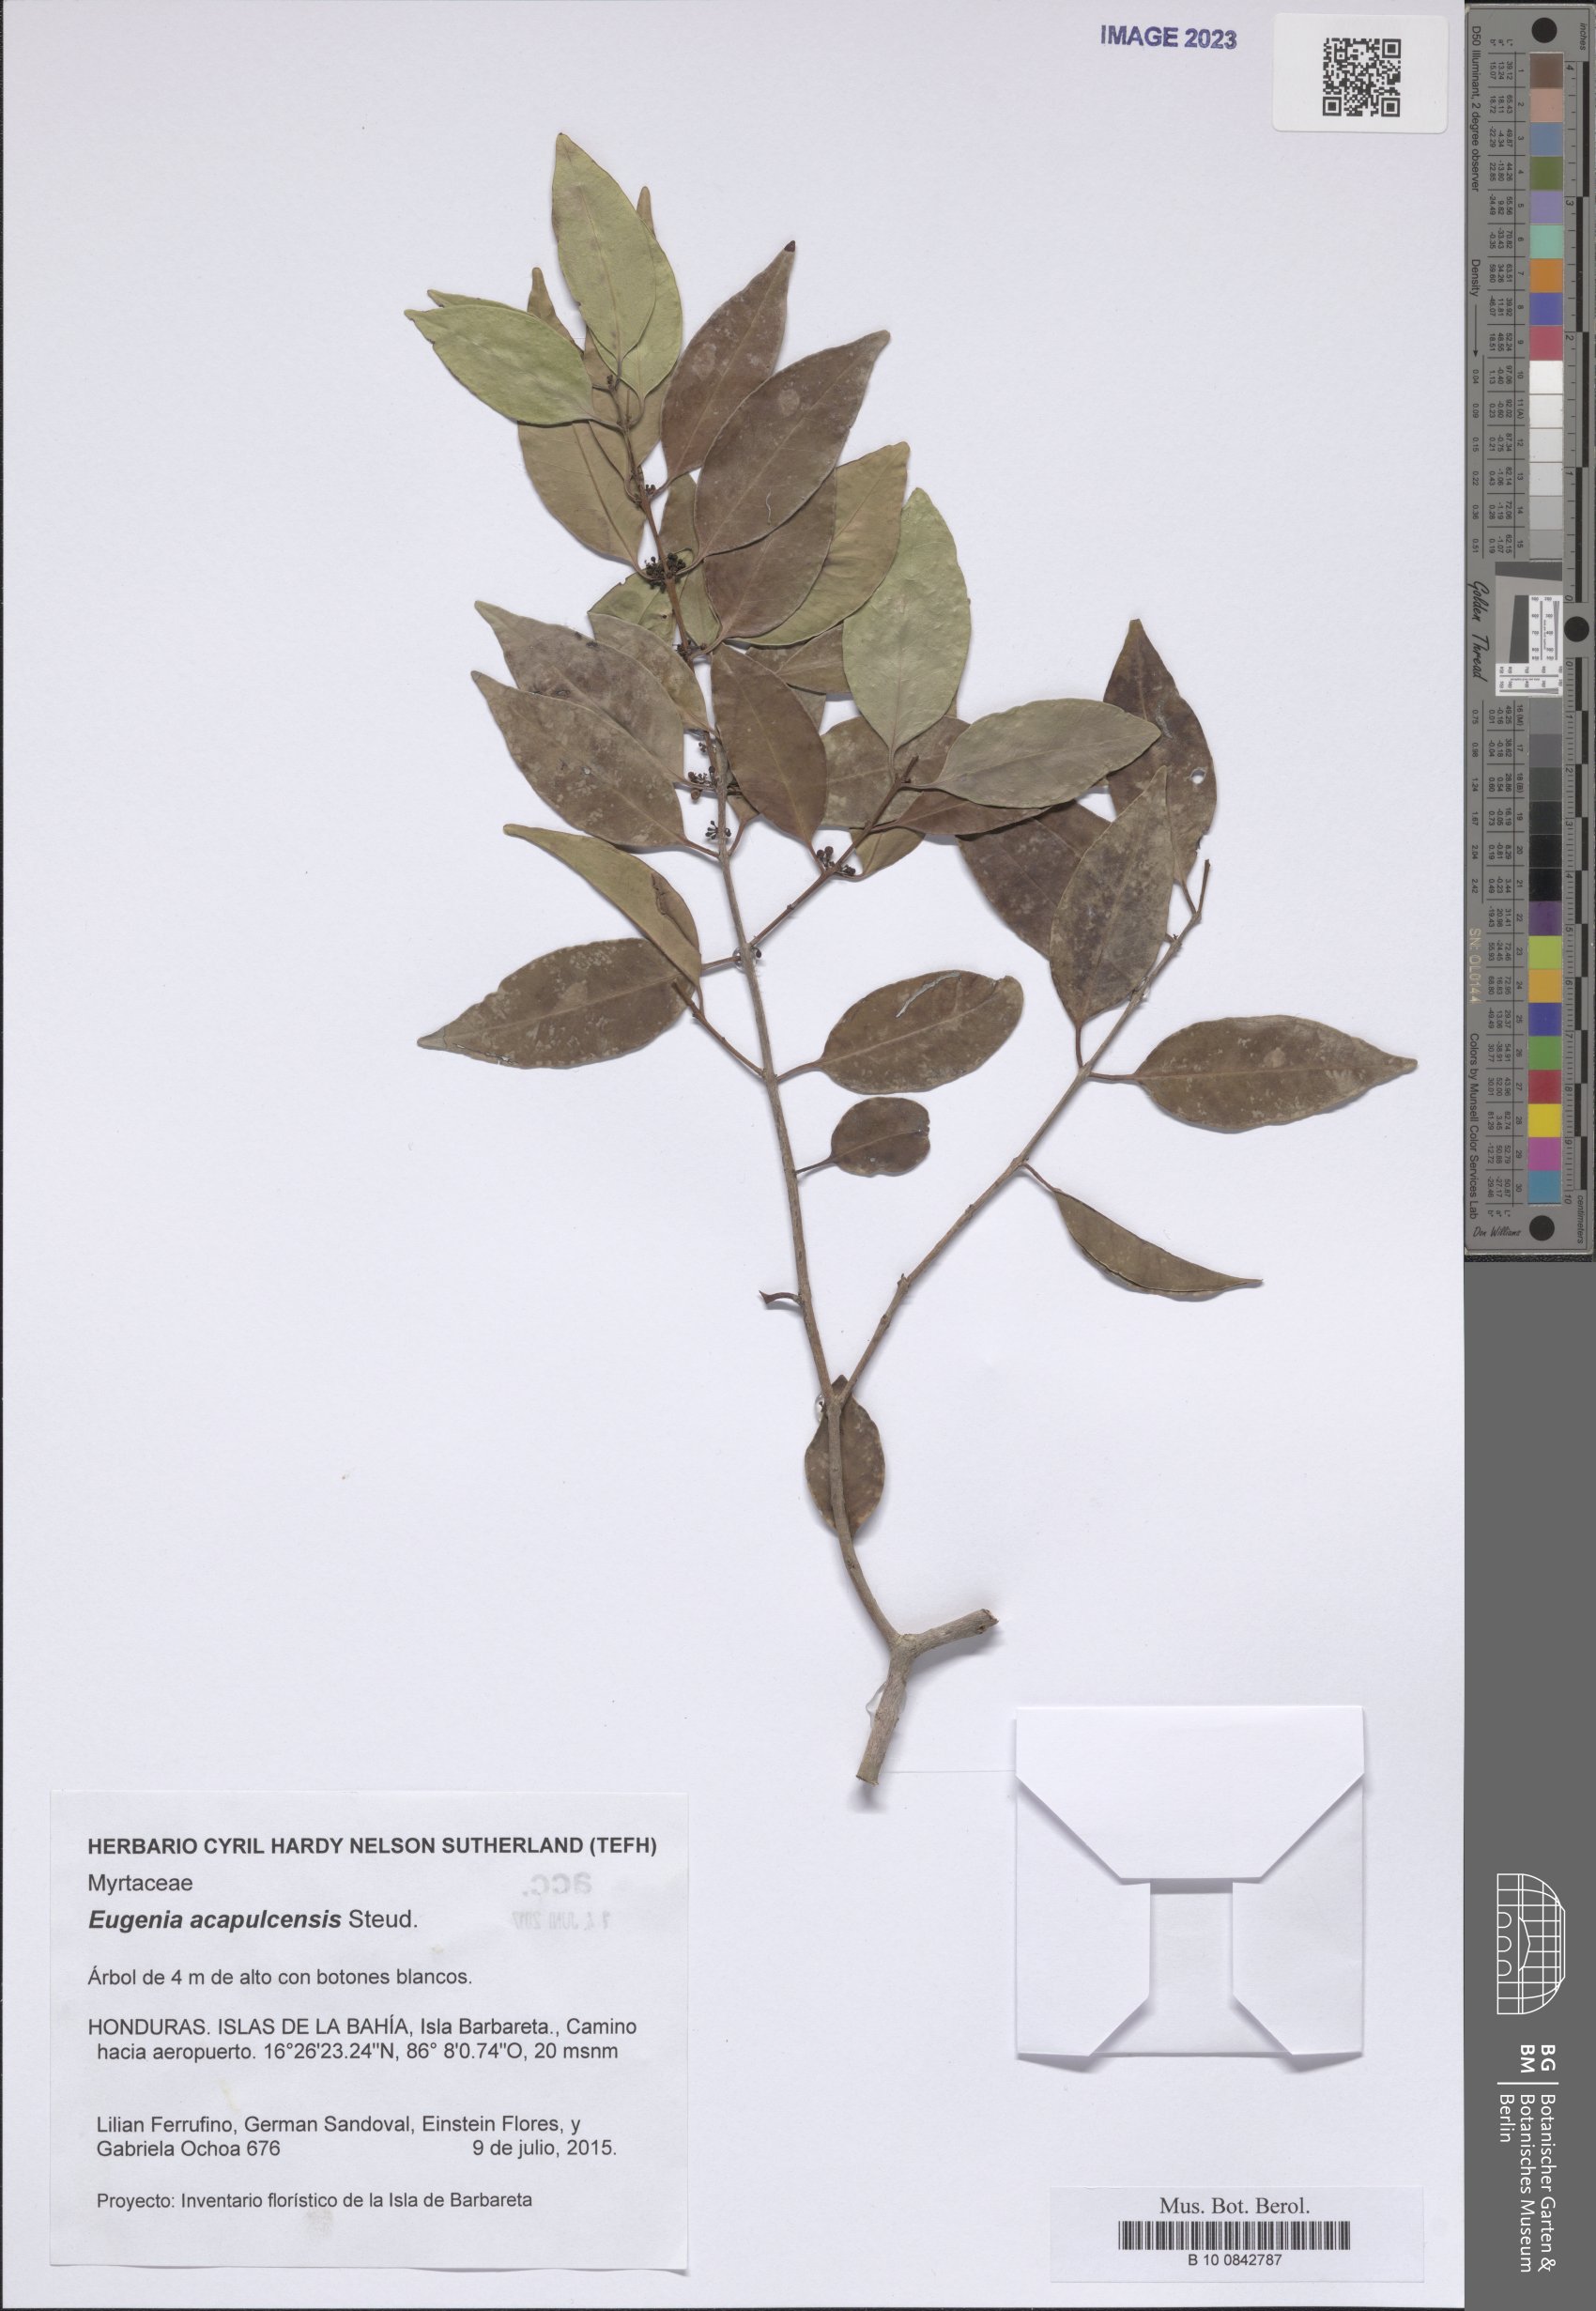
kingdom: Plantae
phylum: Tracheophyta
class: Magnoliopsida
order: Myrtales
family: Myrtaceae
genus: Eugenia
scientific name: Eugenia acapulcensis
